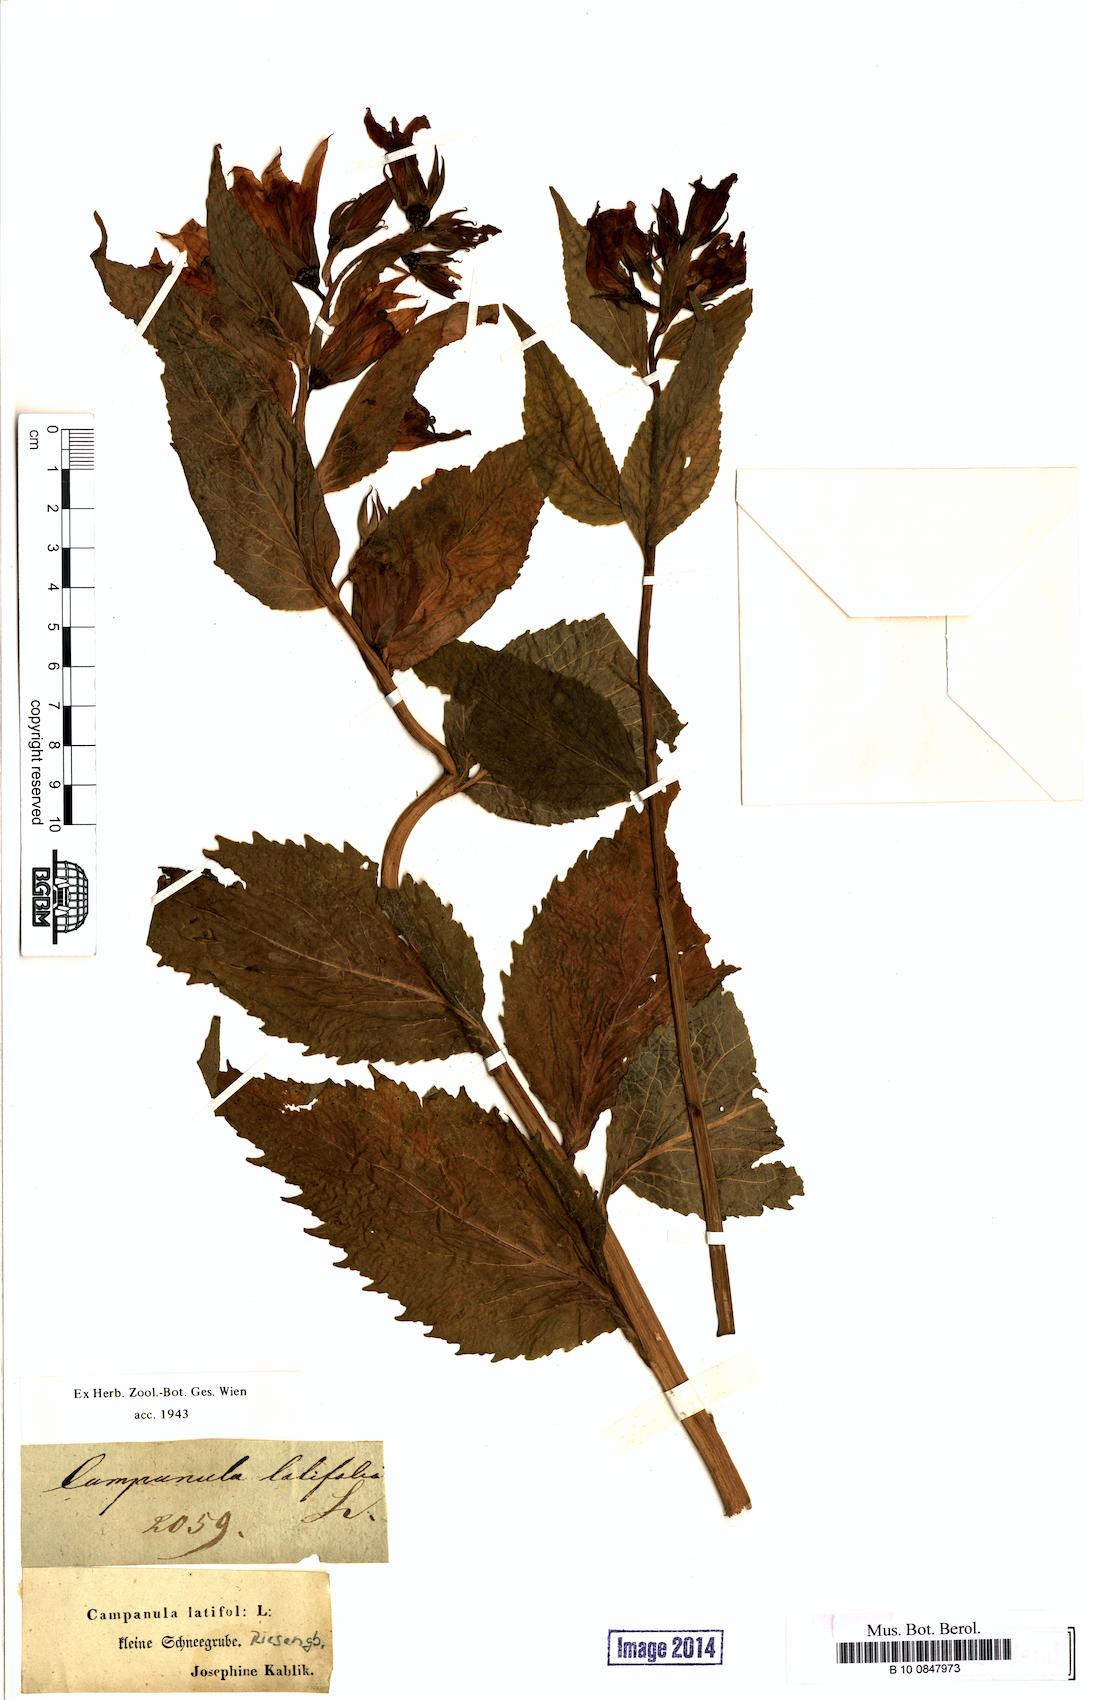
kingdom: Plantae
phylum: Tracheophyta
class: Magnoliopsida
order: Asterales
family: Campanulaceae
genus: Campanula
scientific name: Campanula latifolia
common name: Giant bellflower
